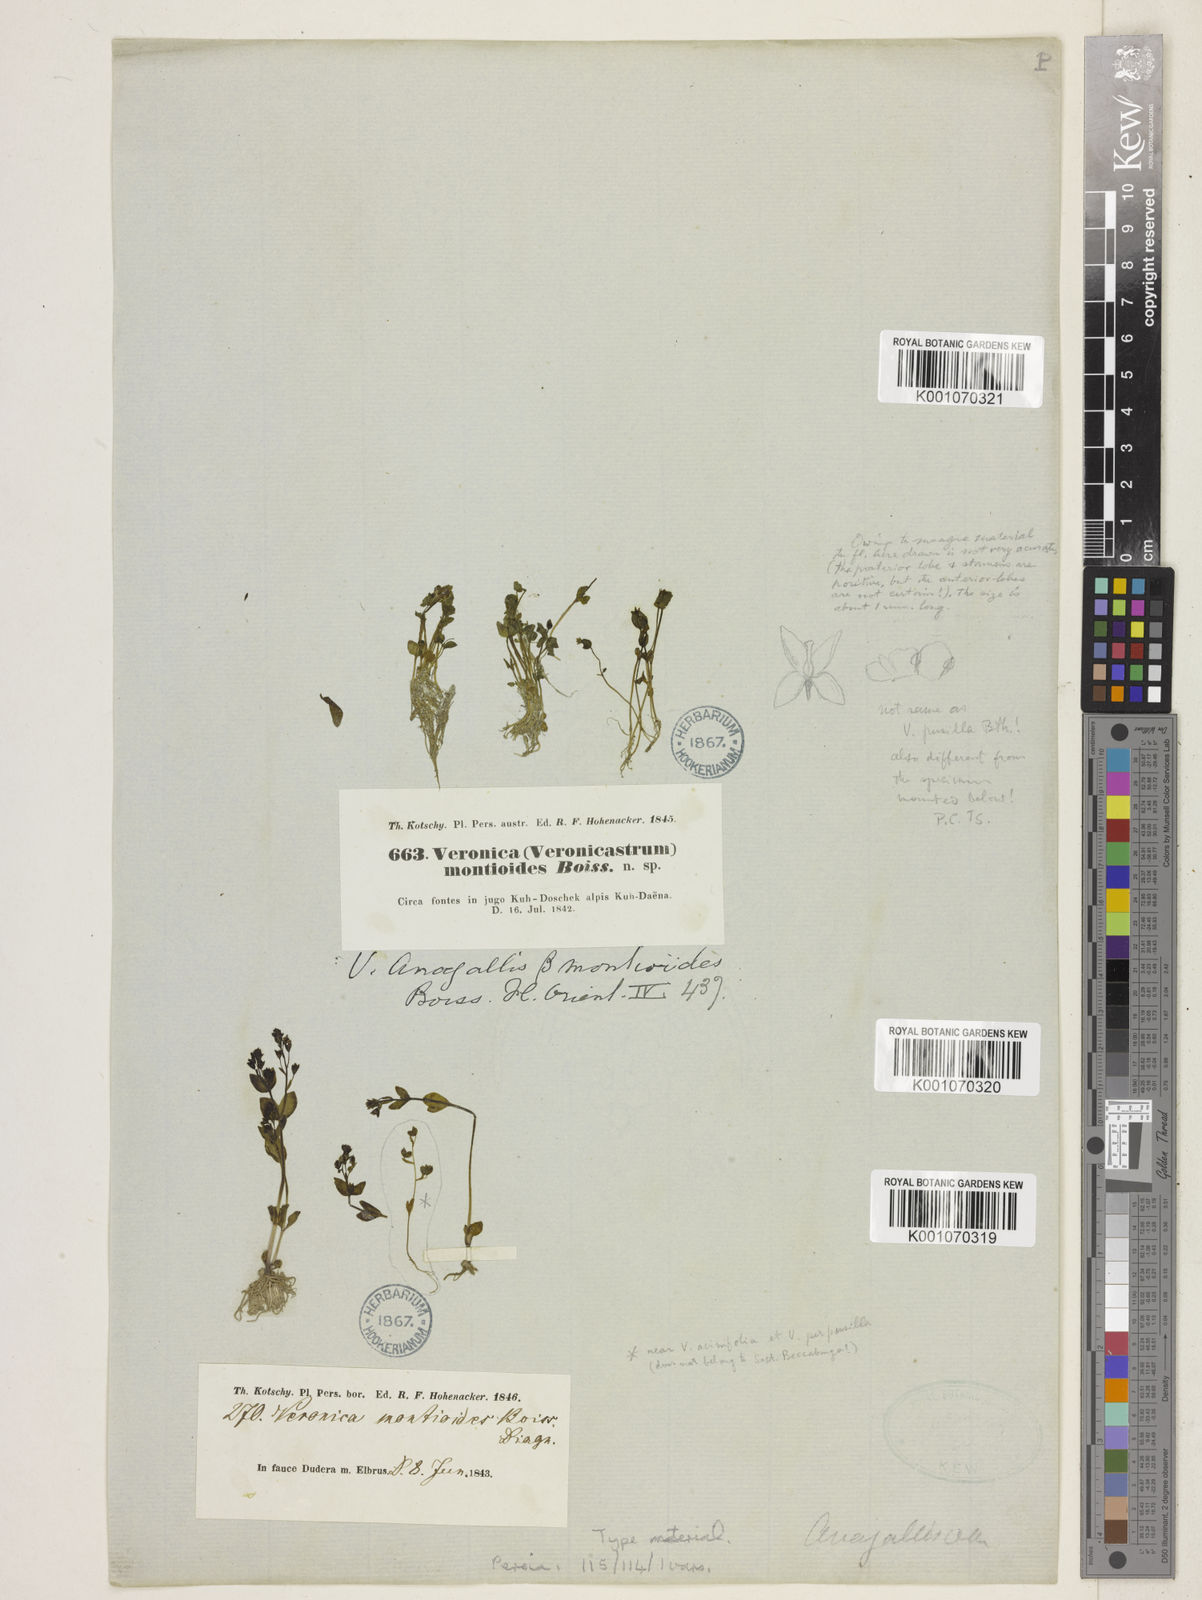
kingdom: Plantae
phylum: Tracheophyta
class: Magnoliopsida
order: Lamiales
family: Plantaginaceae
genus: Veronica
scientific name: Veronica oxycarpa
